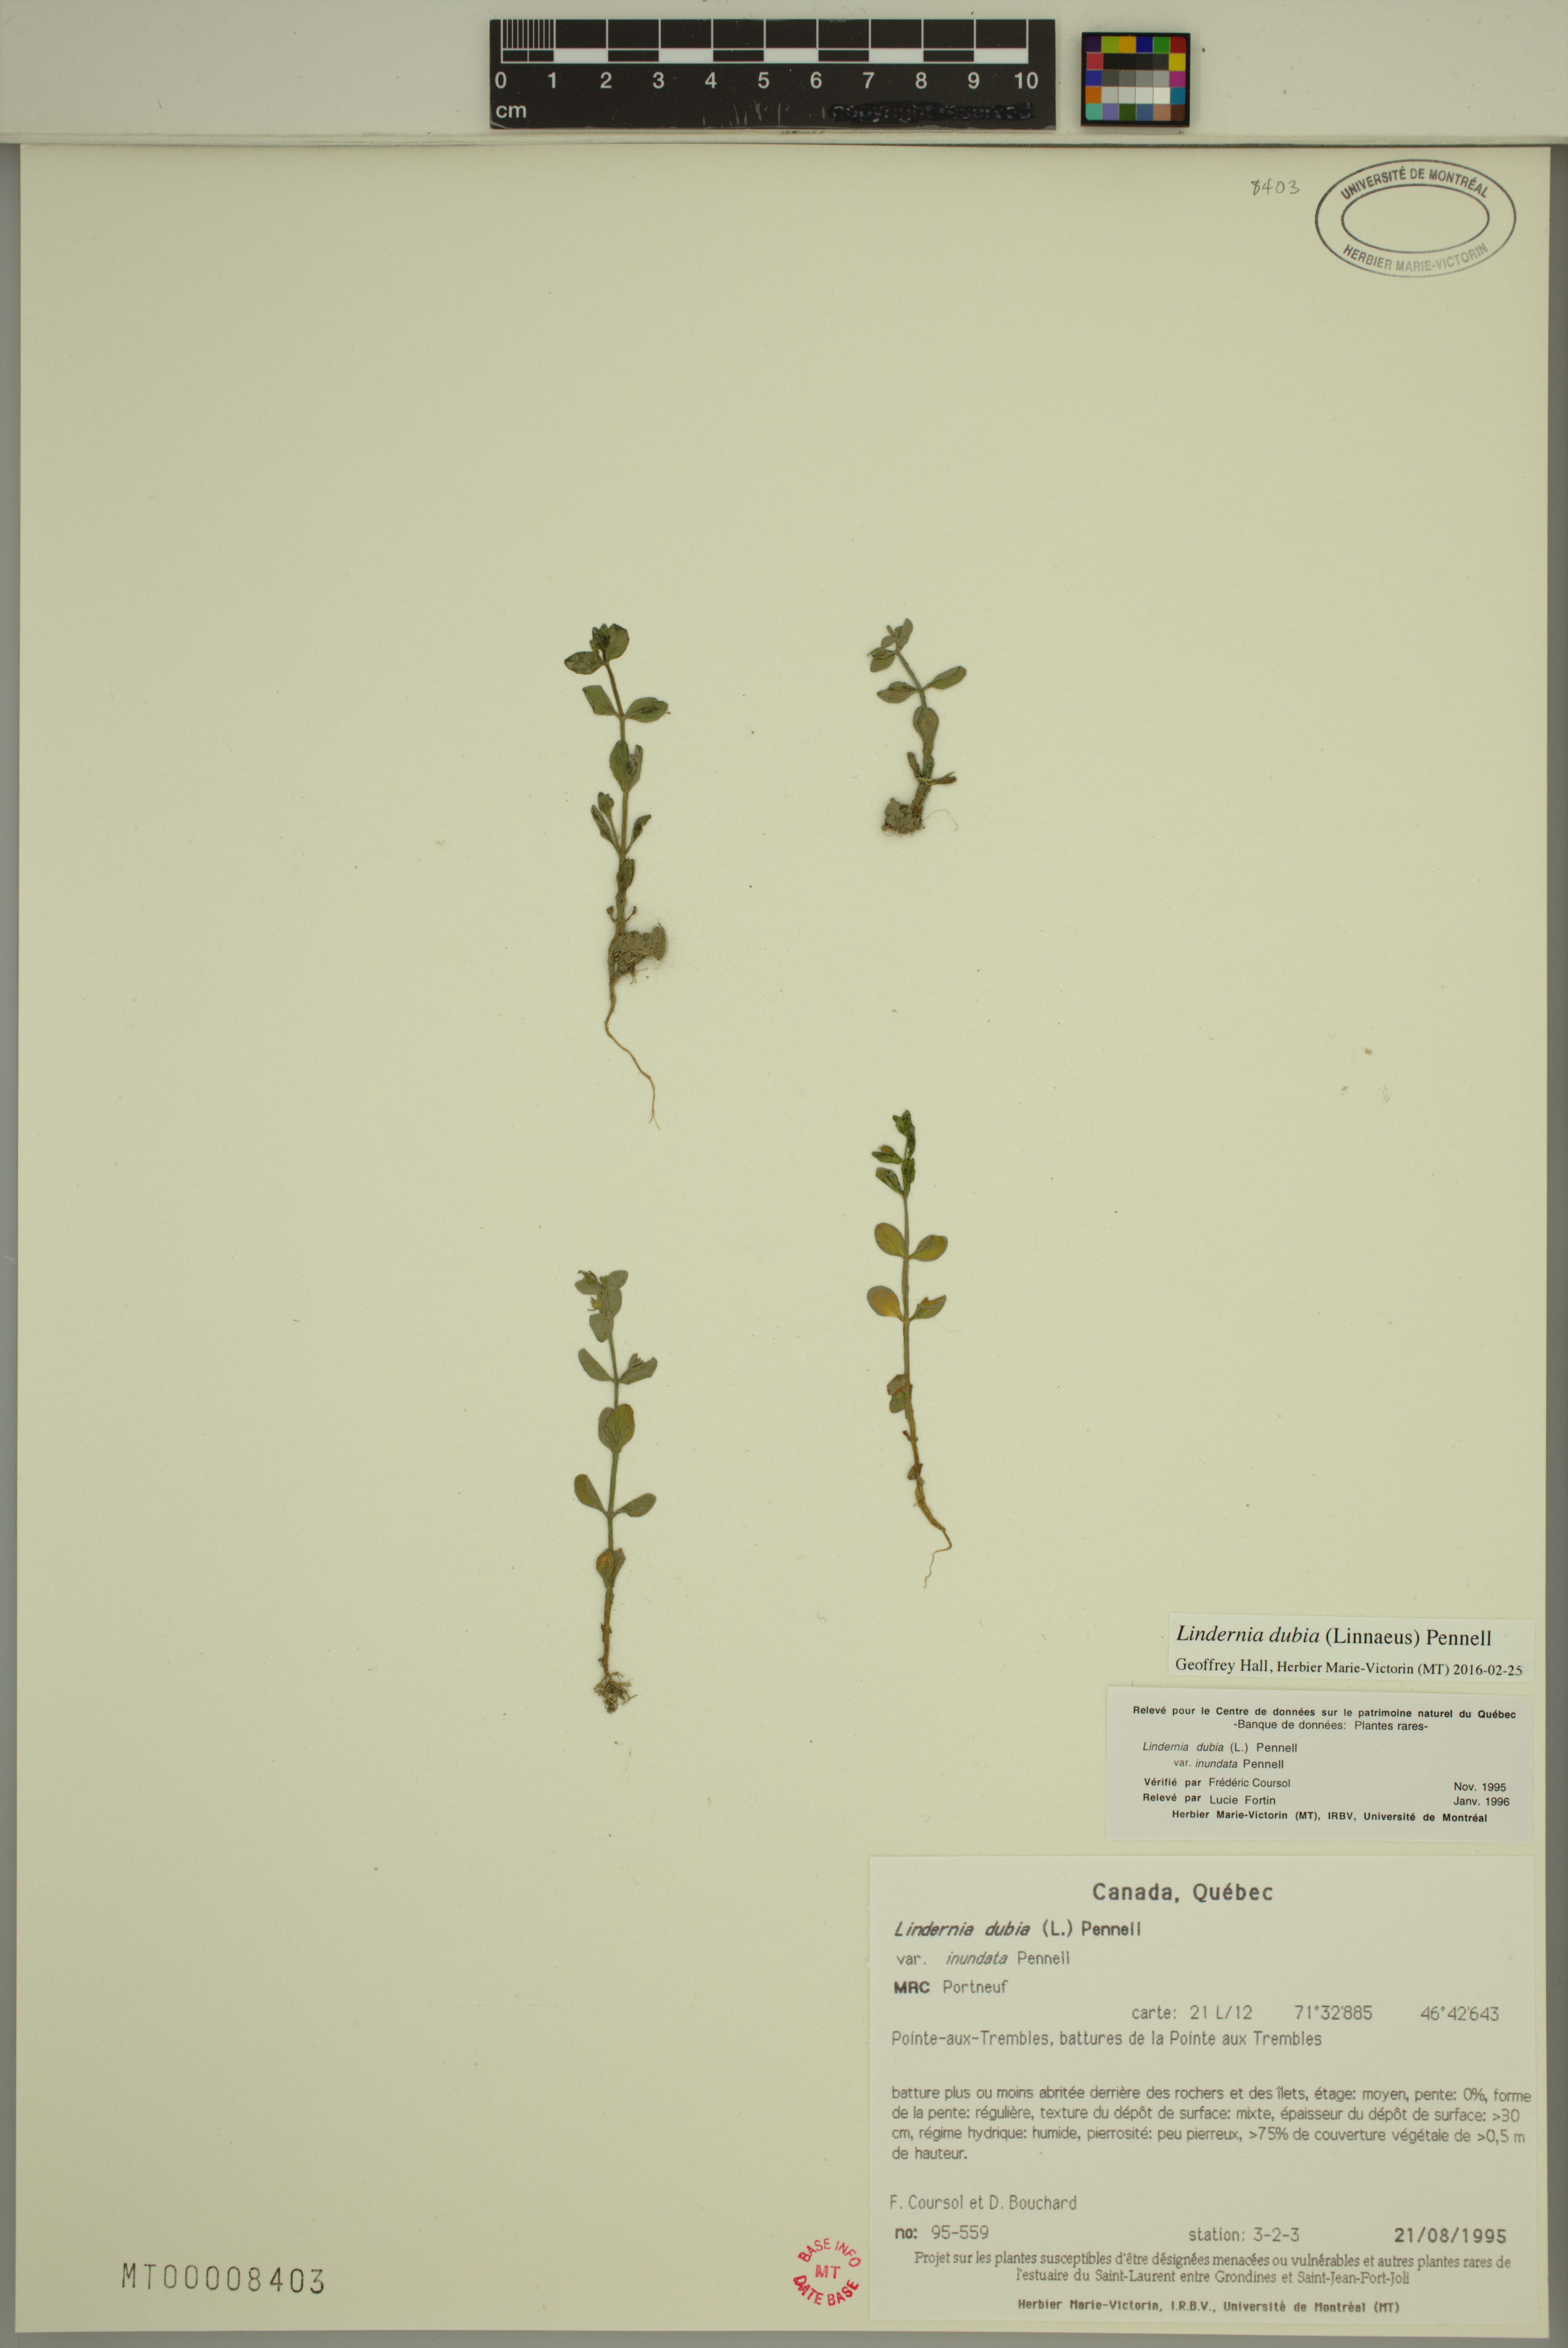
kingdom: Plantae
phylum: Tracheophyta
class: Magnoliopsida
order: Lamiales
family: Linderniaceae
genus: Lindernia
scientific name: Lindernia dubia
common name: Annual false pimpernel
